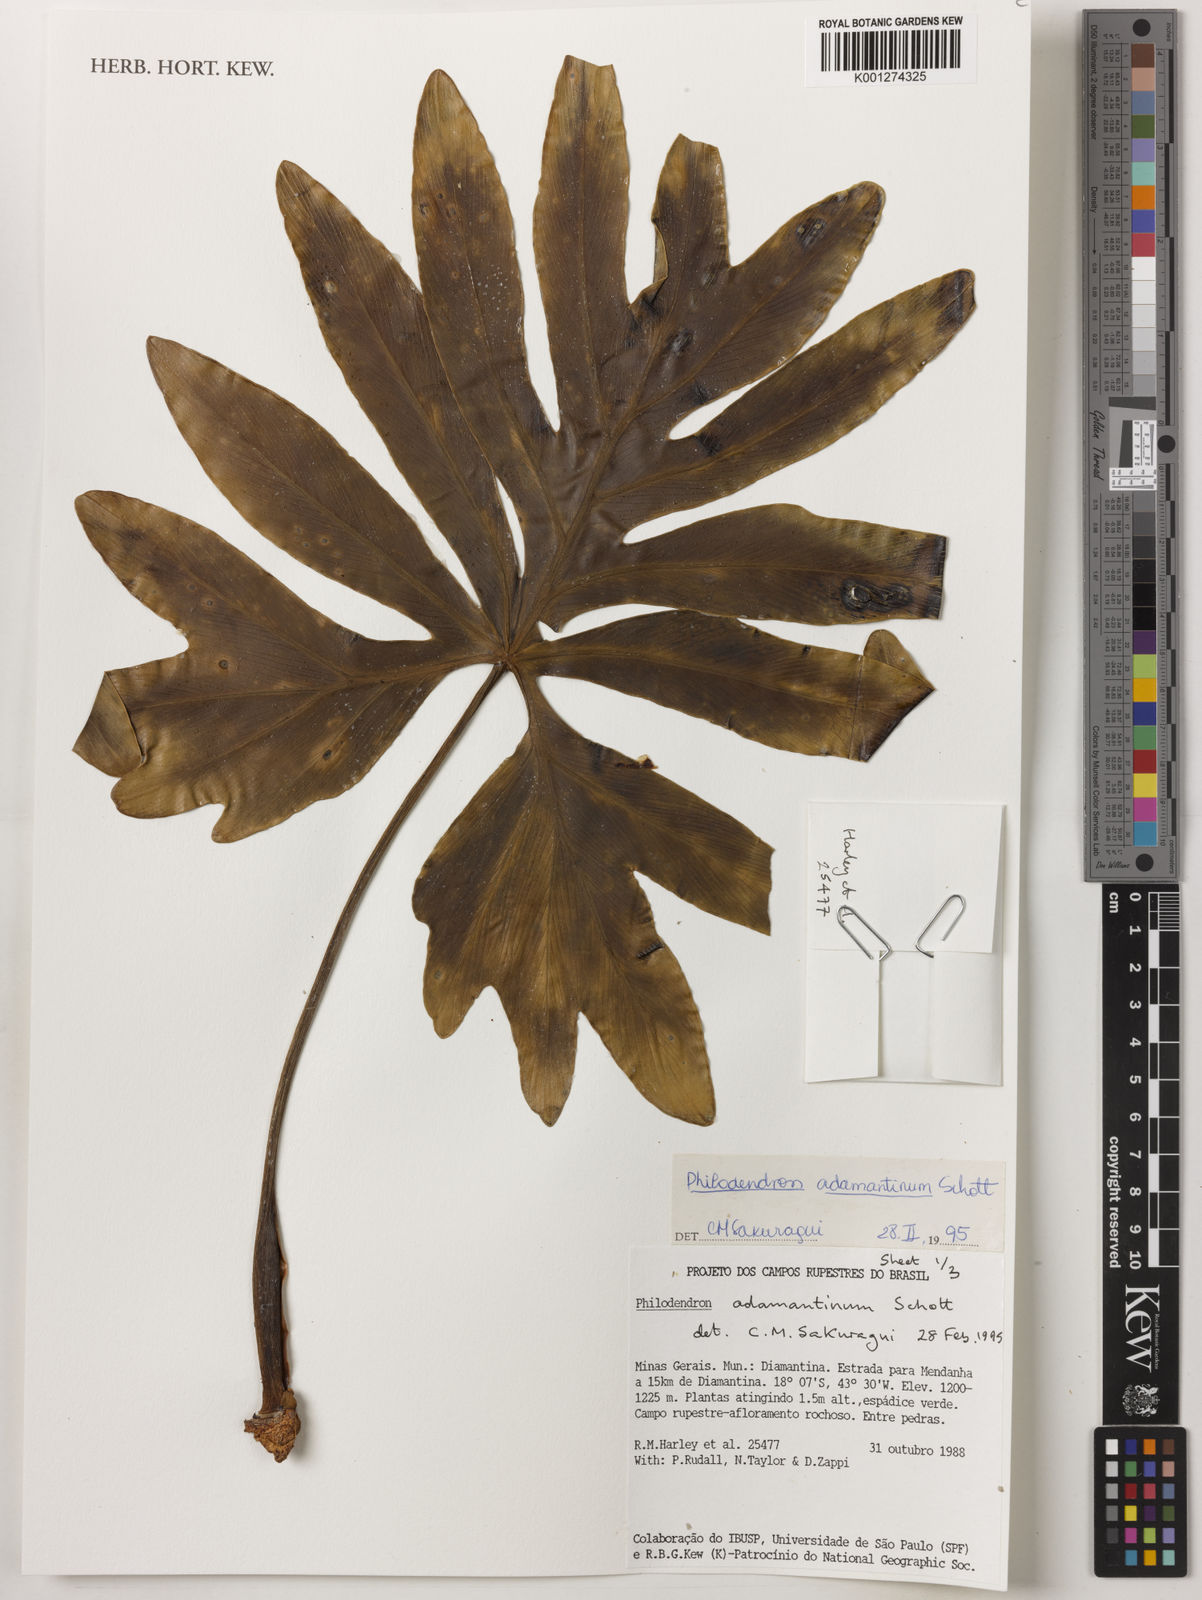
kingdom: Plantae
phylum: Tracheophyta
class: Liliopsida
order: Alismatales
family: Araceae
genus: Thaumatophyllum
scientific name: Thaumatophyllum adamantinum
